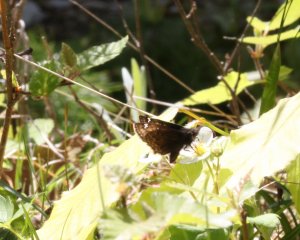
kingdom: Animalia
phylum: Arthropoda
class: Insecta
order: Lepidoptera
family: Hesperiidae
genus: Gesta
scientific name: Gesta
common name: Juvenal's Duskywing
